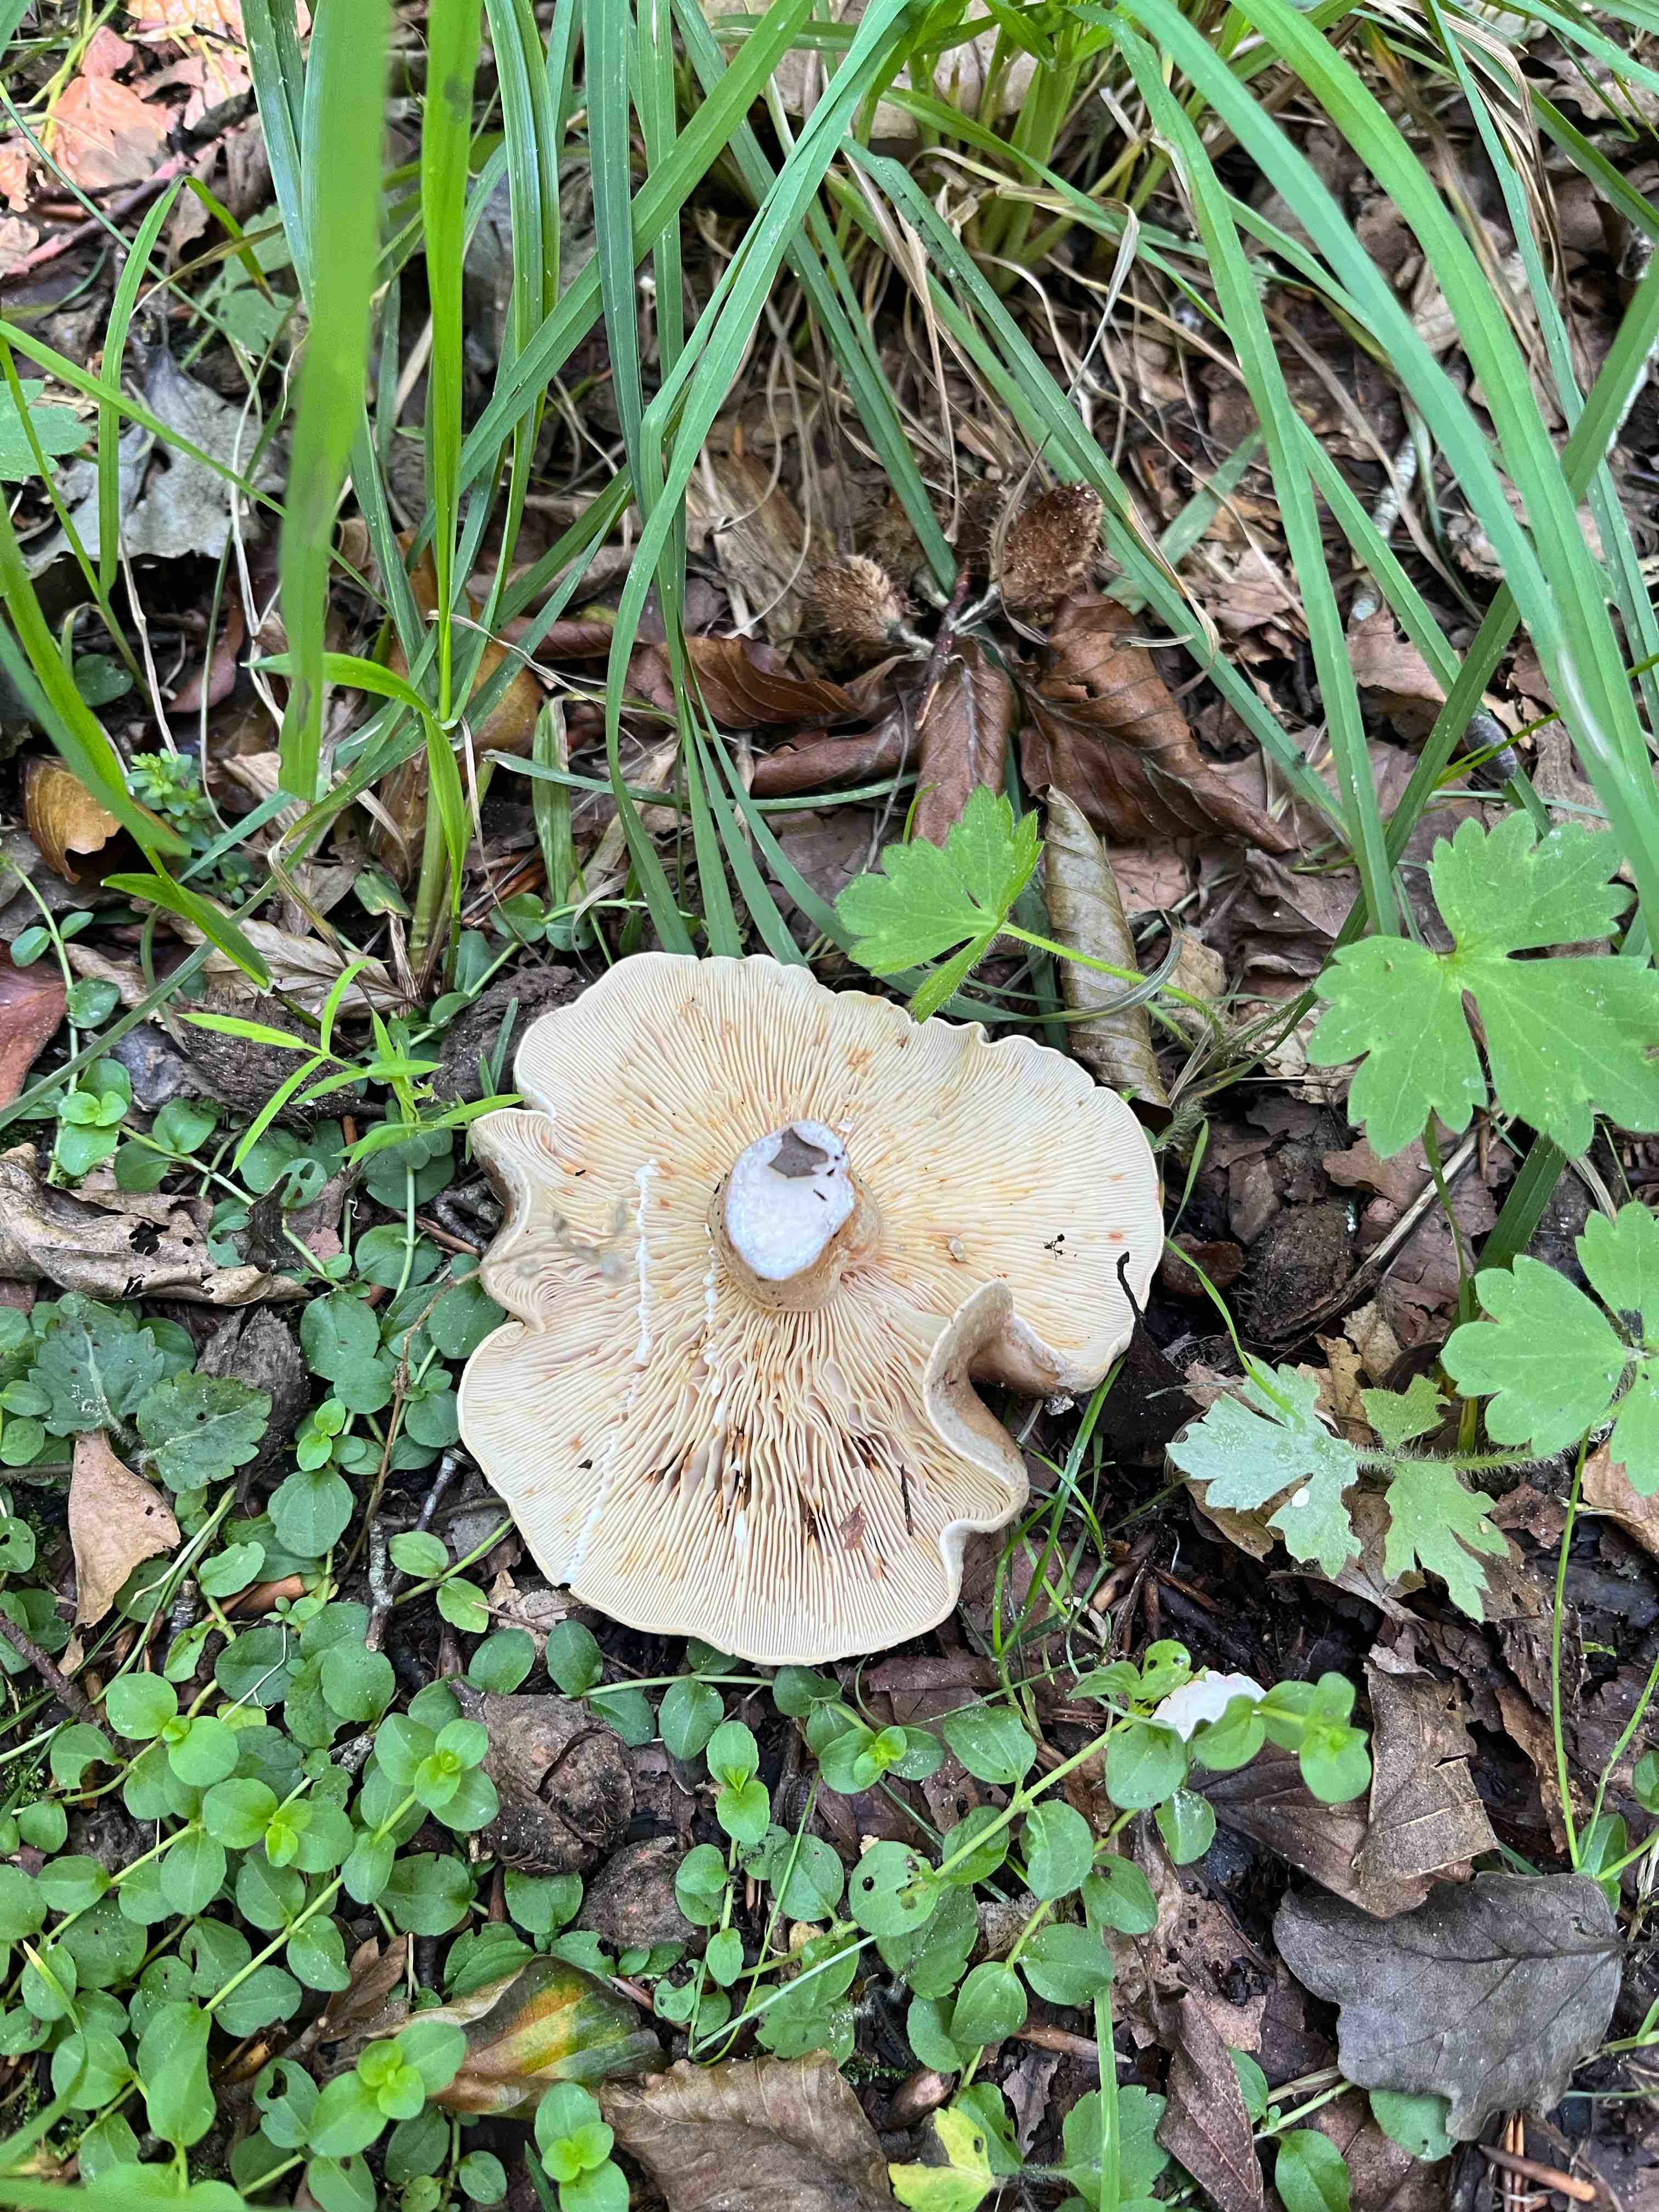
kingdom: Fungi
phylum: Basidiomycota
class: Agaricomycetes
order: Russulales
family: Russulaceae
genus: Lactarius
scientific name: Lactarius fluens
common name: lysrandet mælkehat
